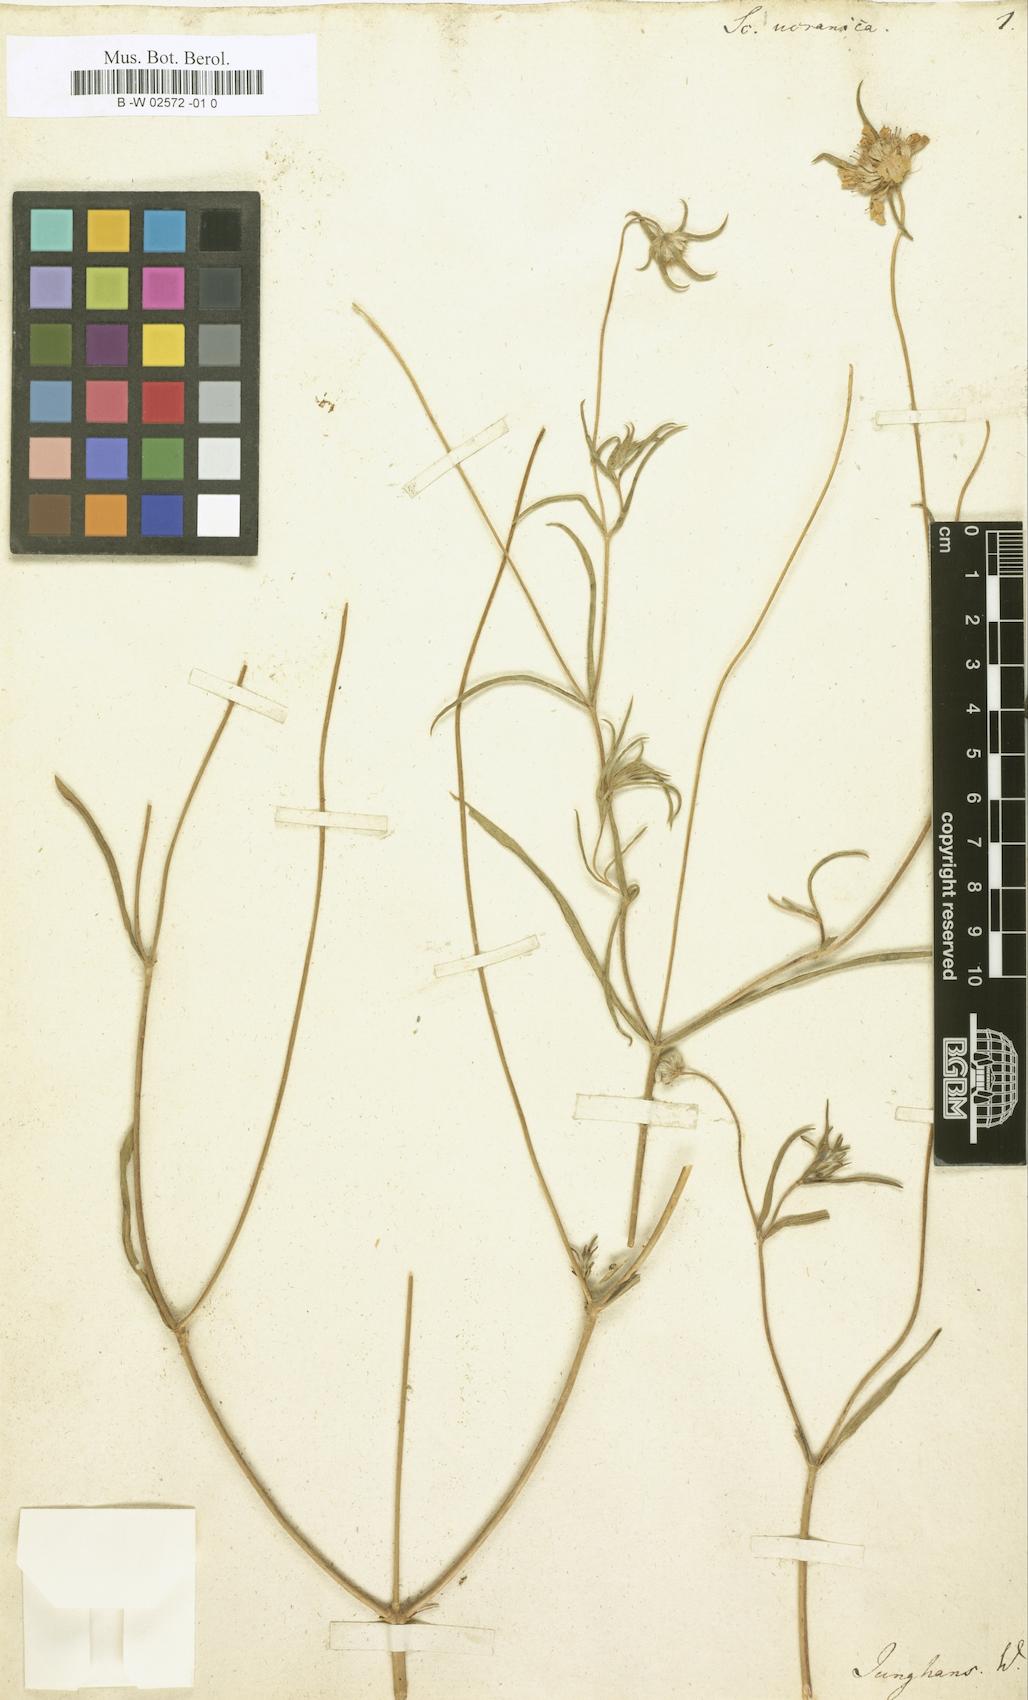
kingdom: Plantae
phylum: Tracheophyta
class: Magnoliopsida
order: Dipsacales
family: Caprifoliaceae
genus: Lomelosia
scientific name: Lomelosia argentea
